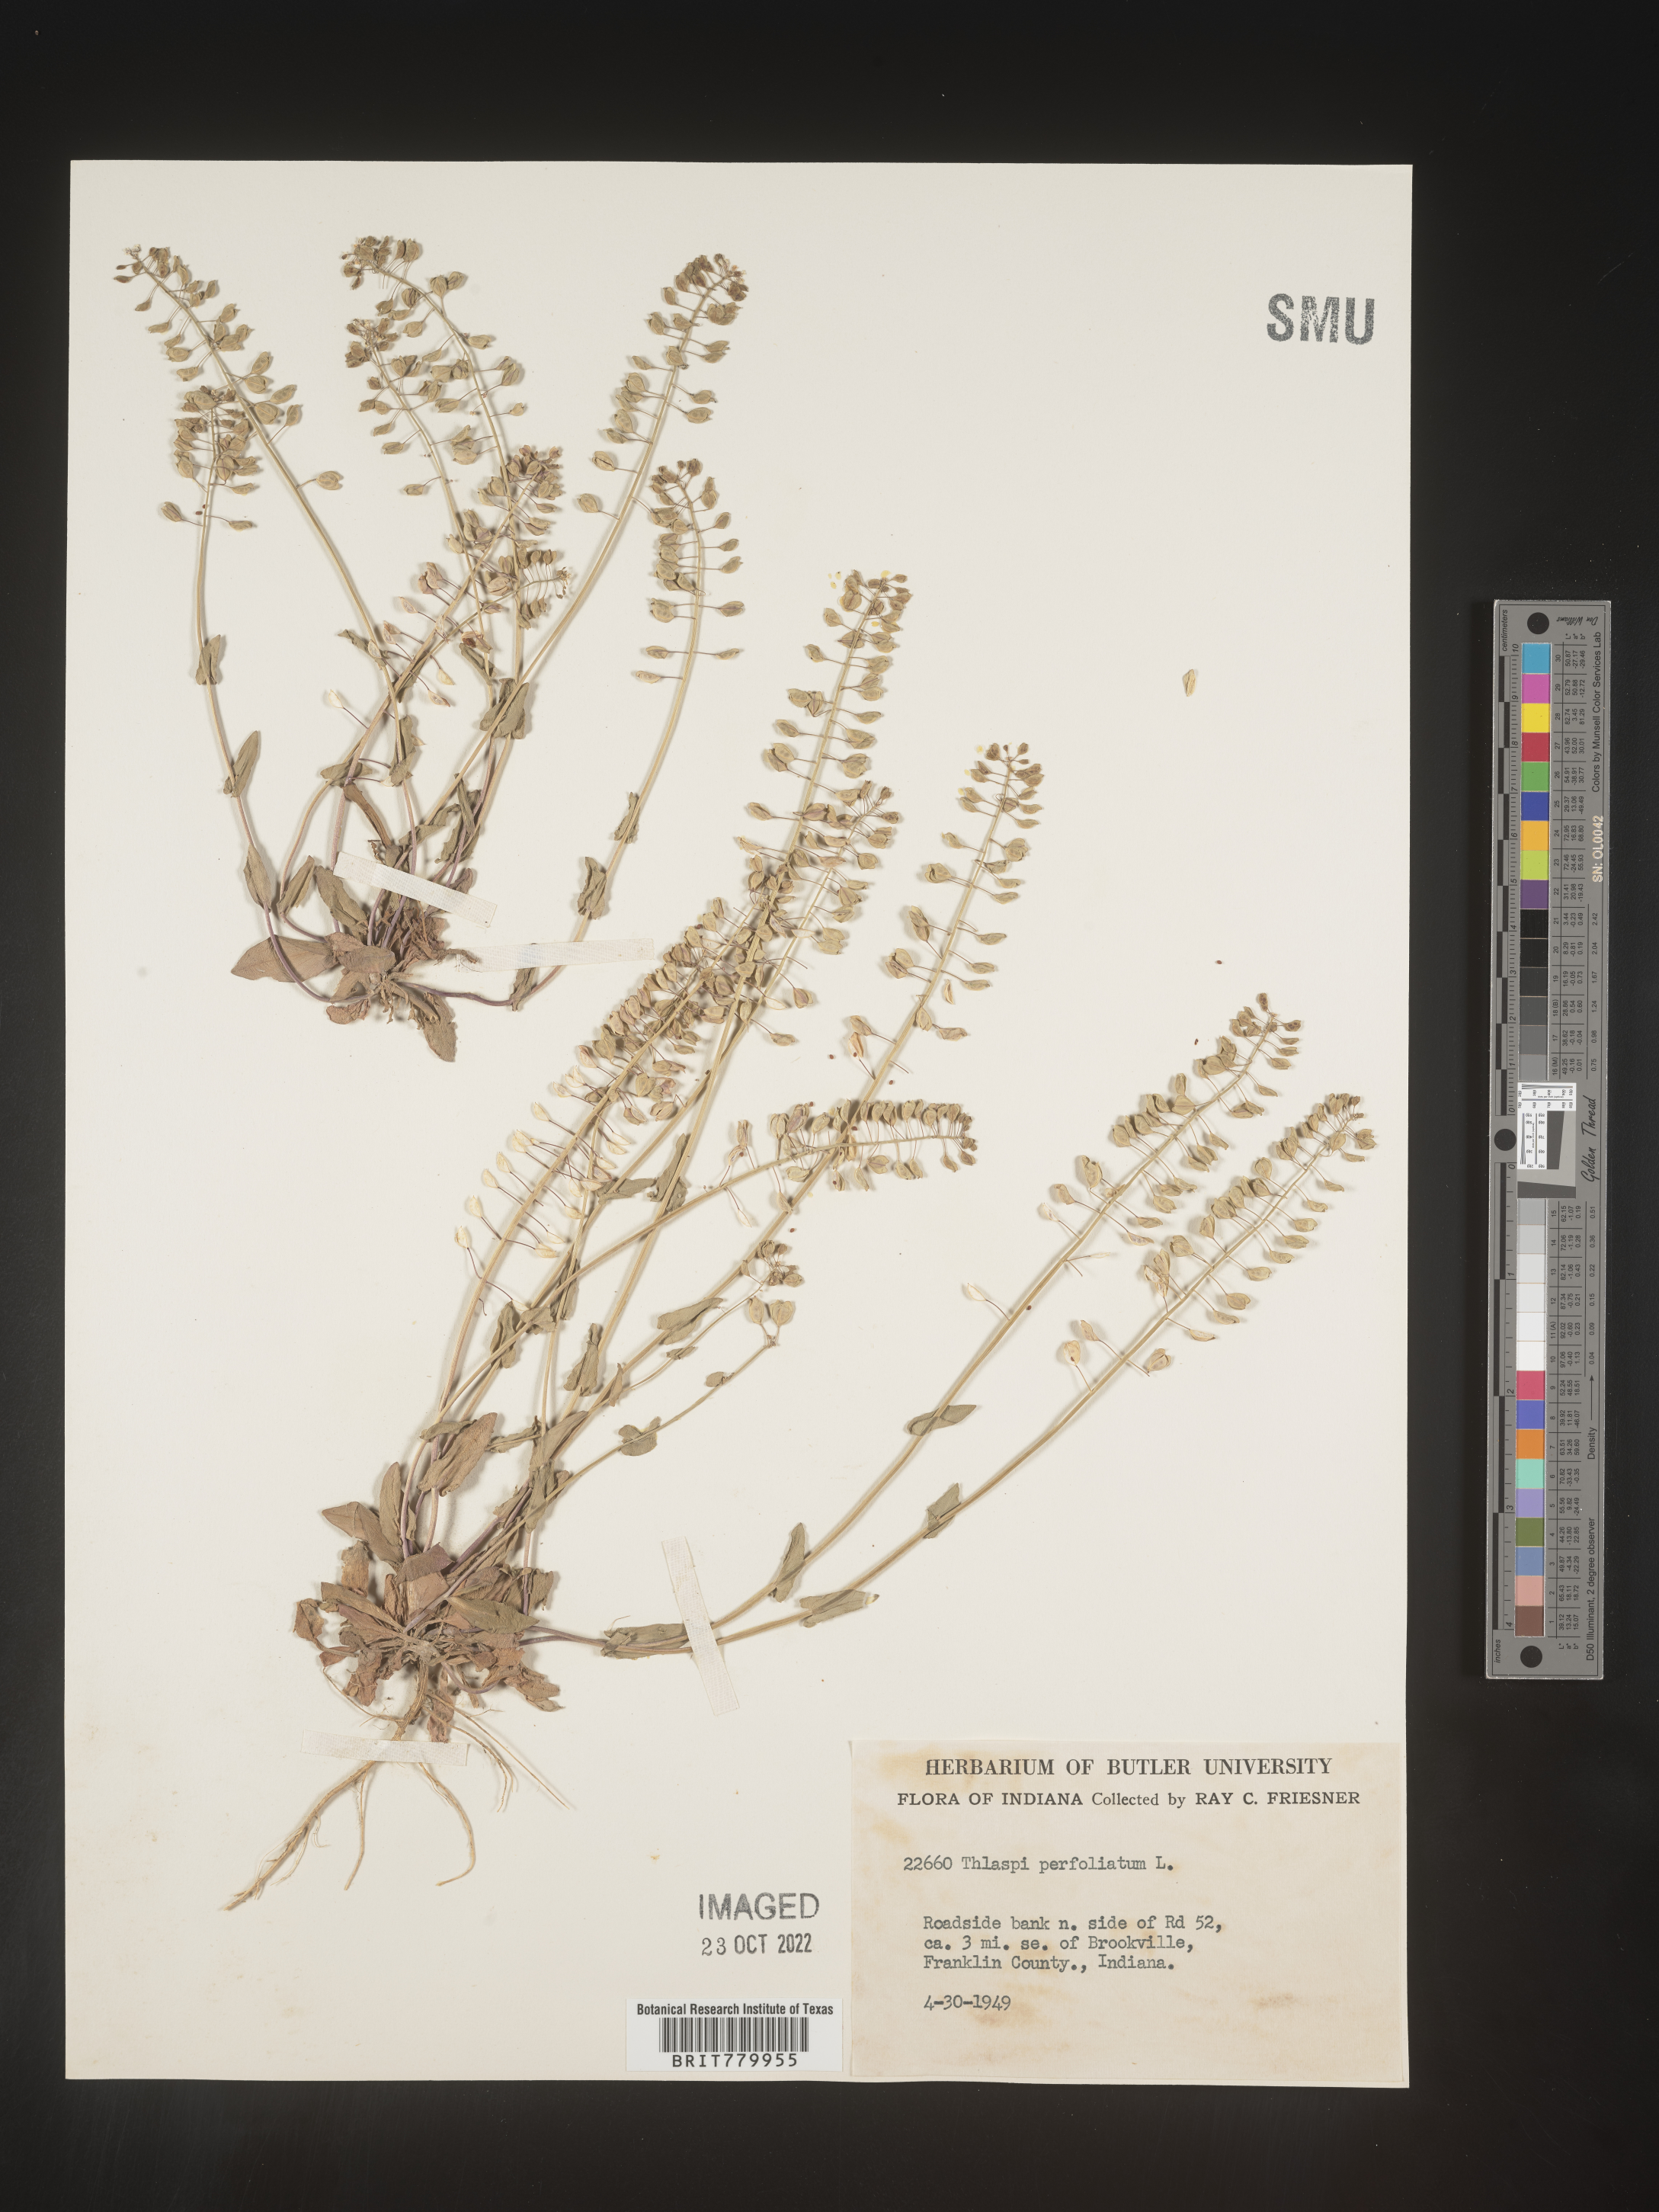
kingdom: Plantae
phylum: Tracheophyta
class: Magnoliopsida
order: Brassicales
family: Brassicaceae
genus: Thlaspi
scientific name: Thlaspi
